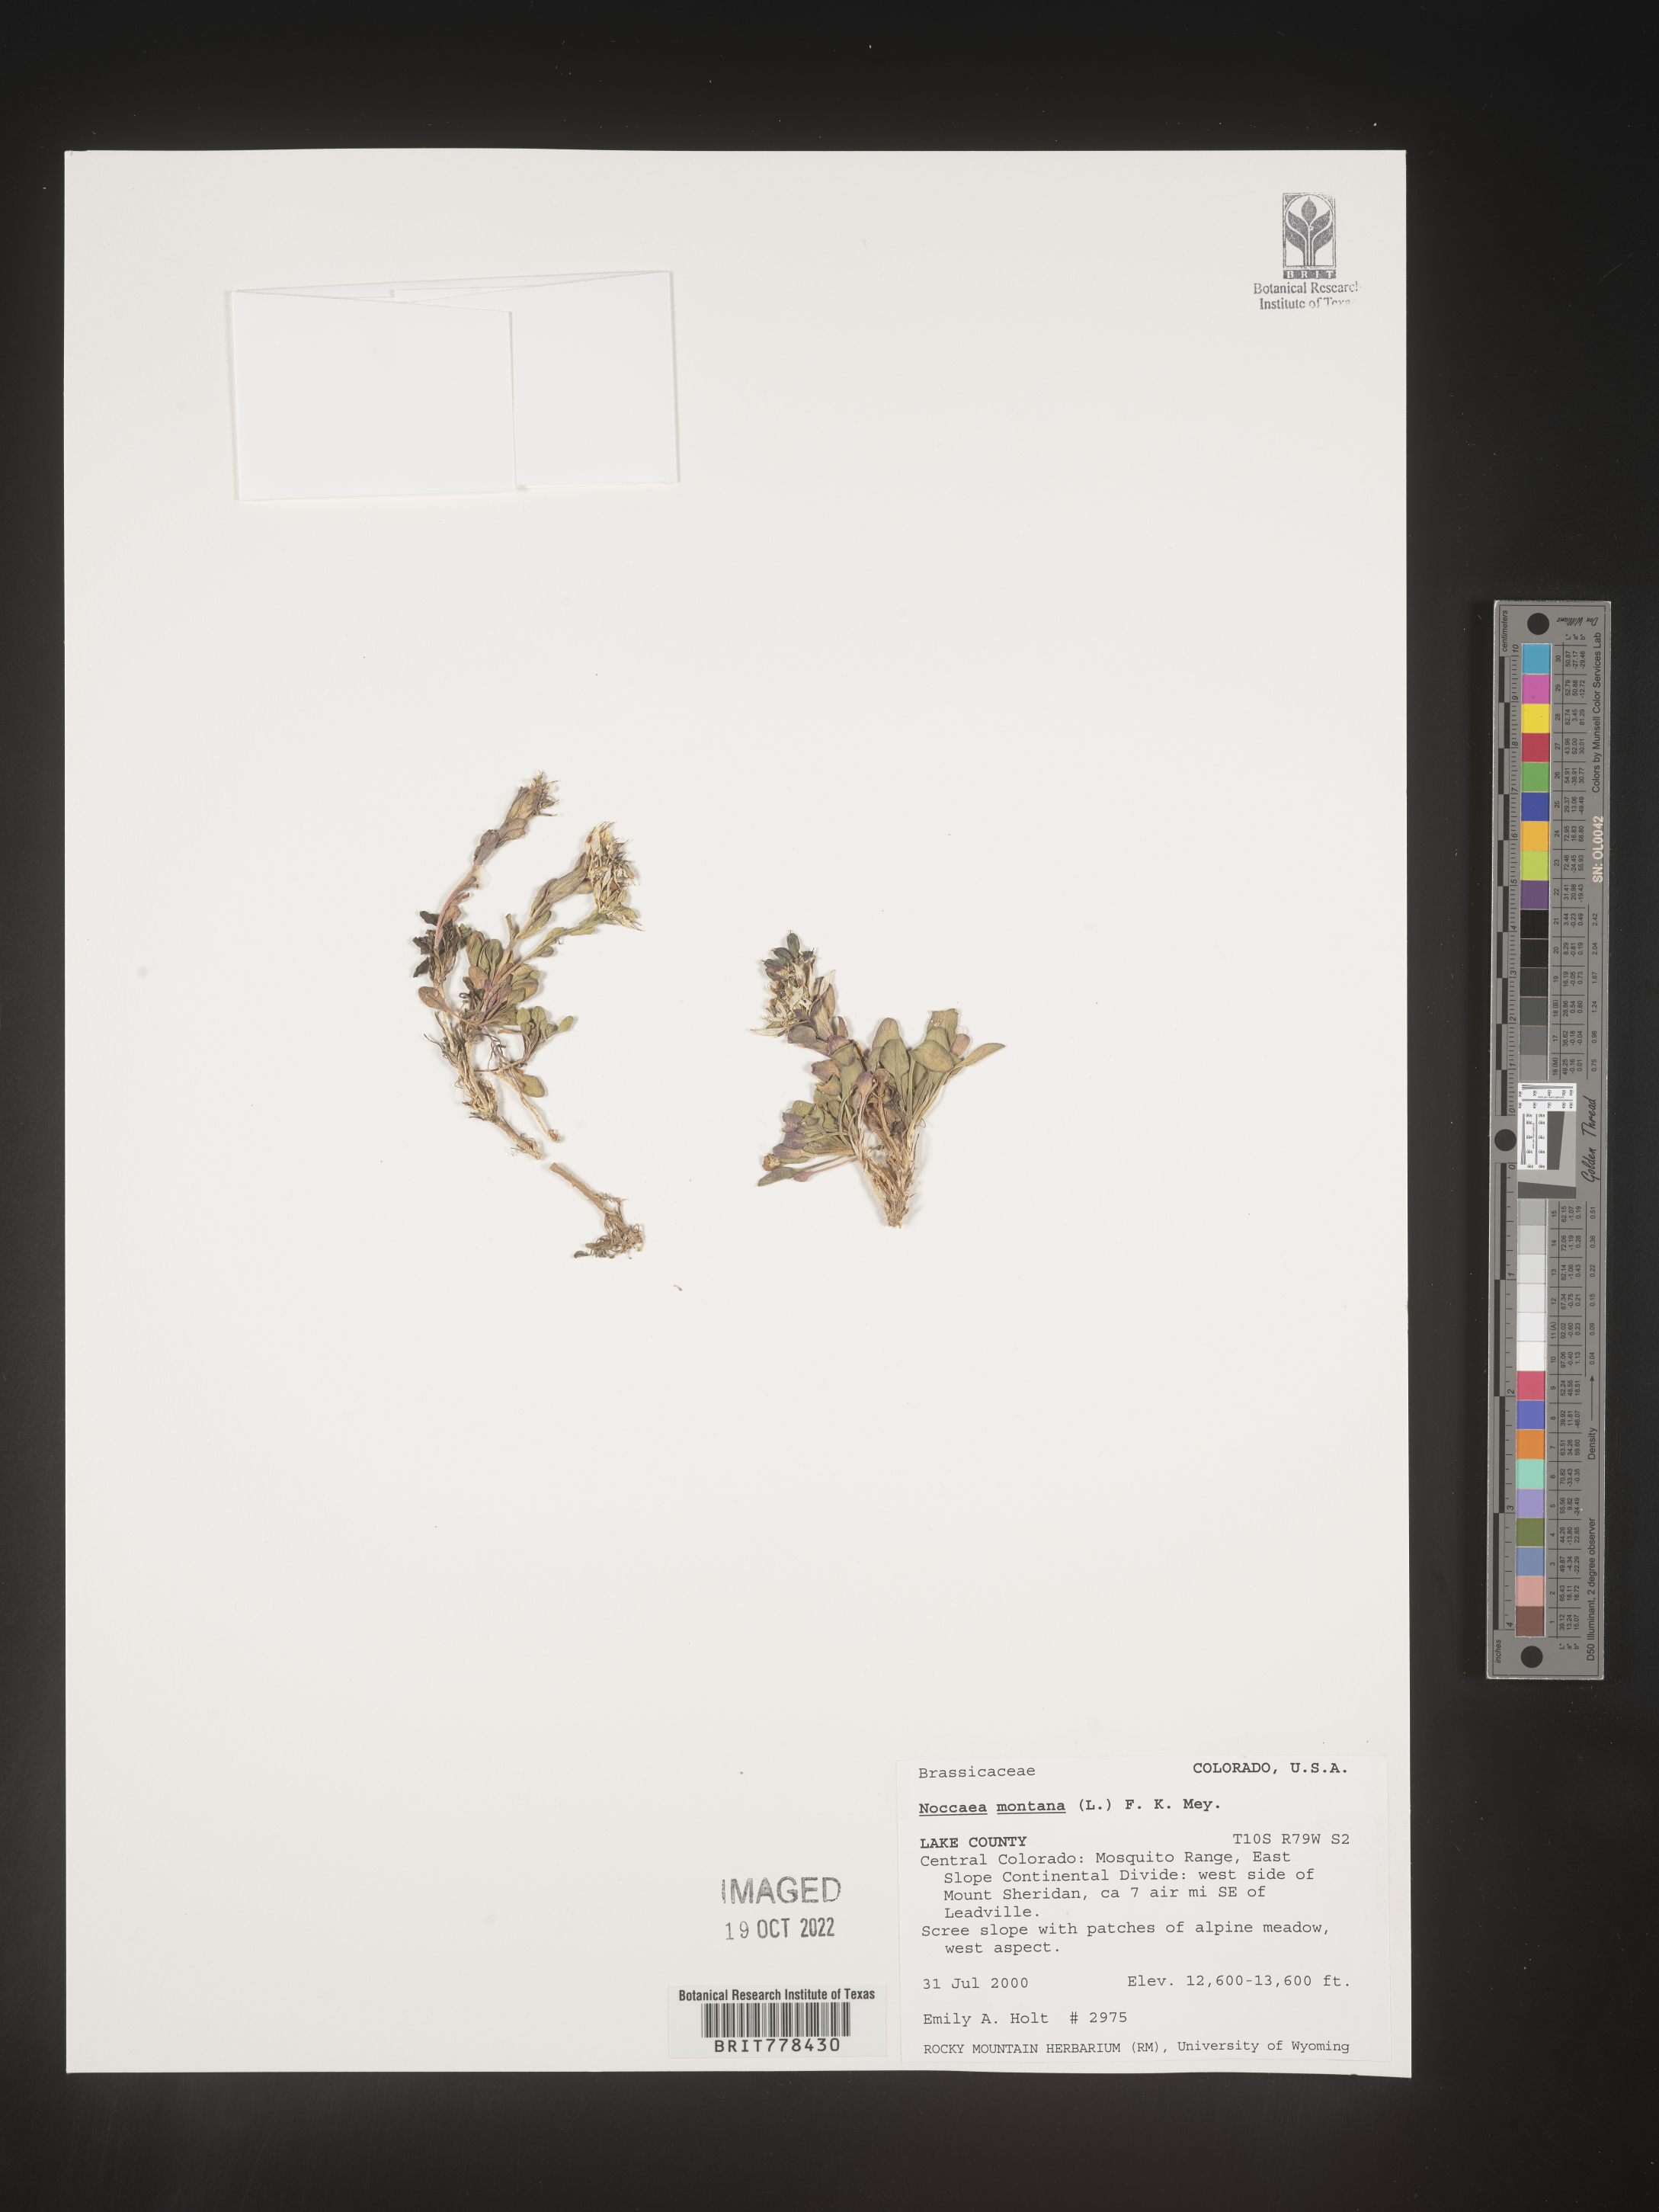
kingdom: Plantae
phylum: Tracheophyta
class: Magnoliopsida
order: Brassicales
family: Brassicaceae
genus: Noccaea
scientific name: Noccaea
